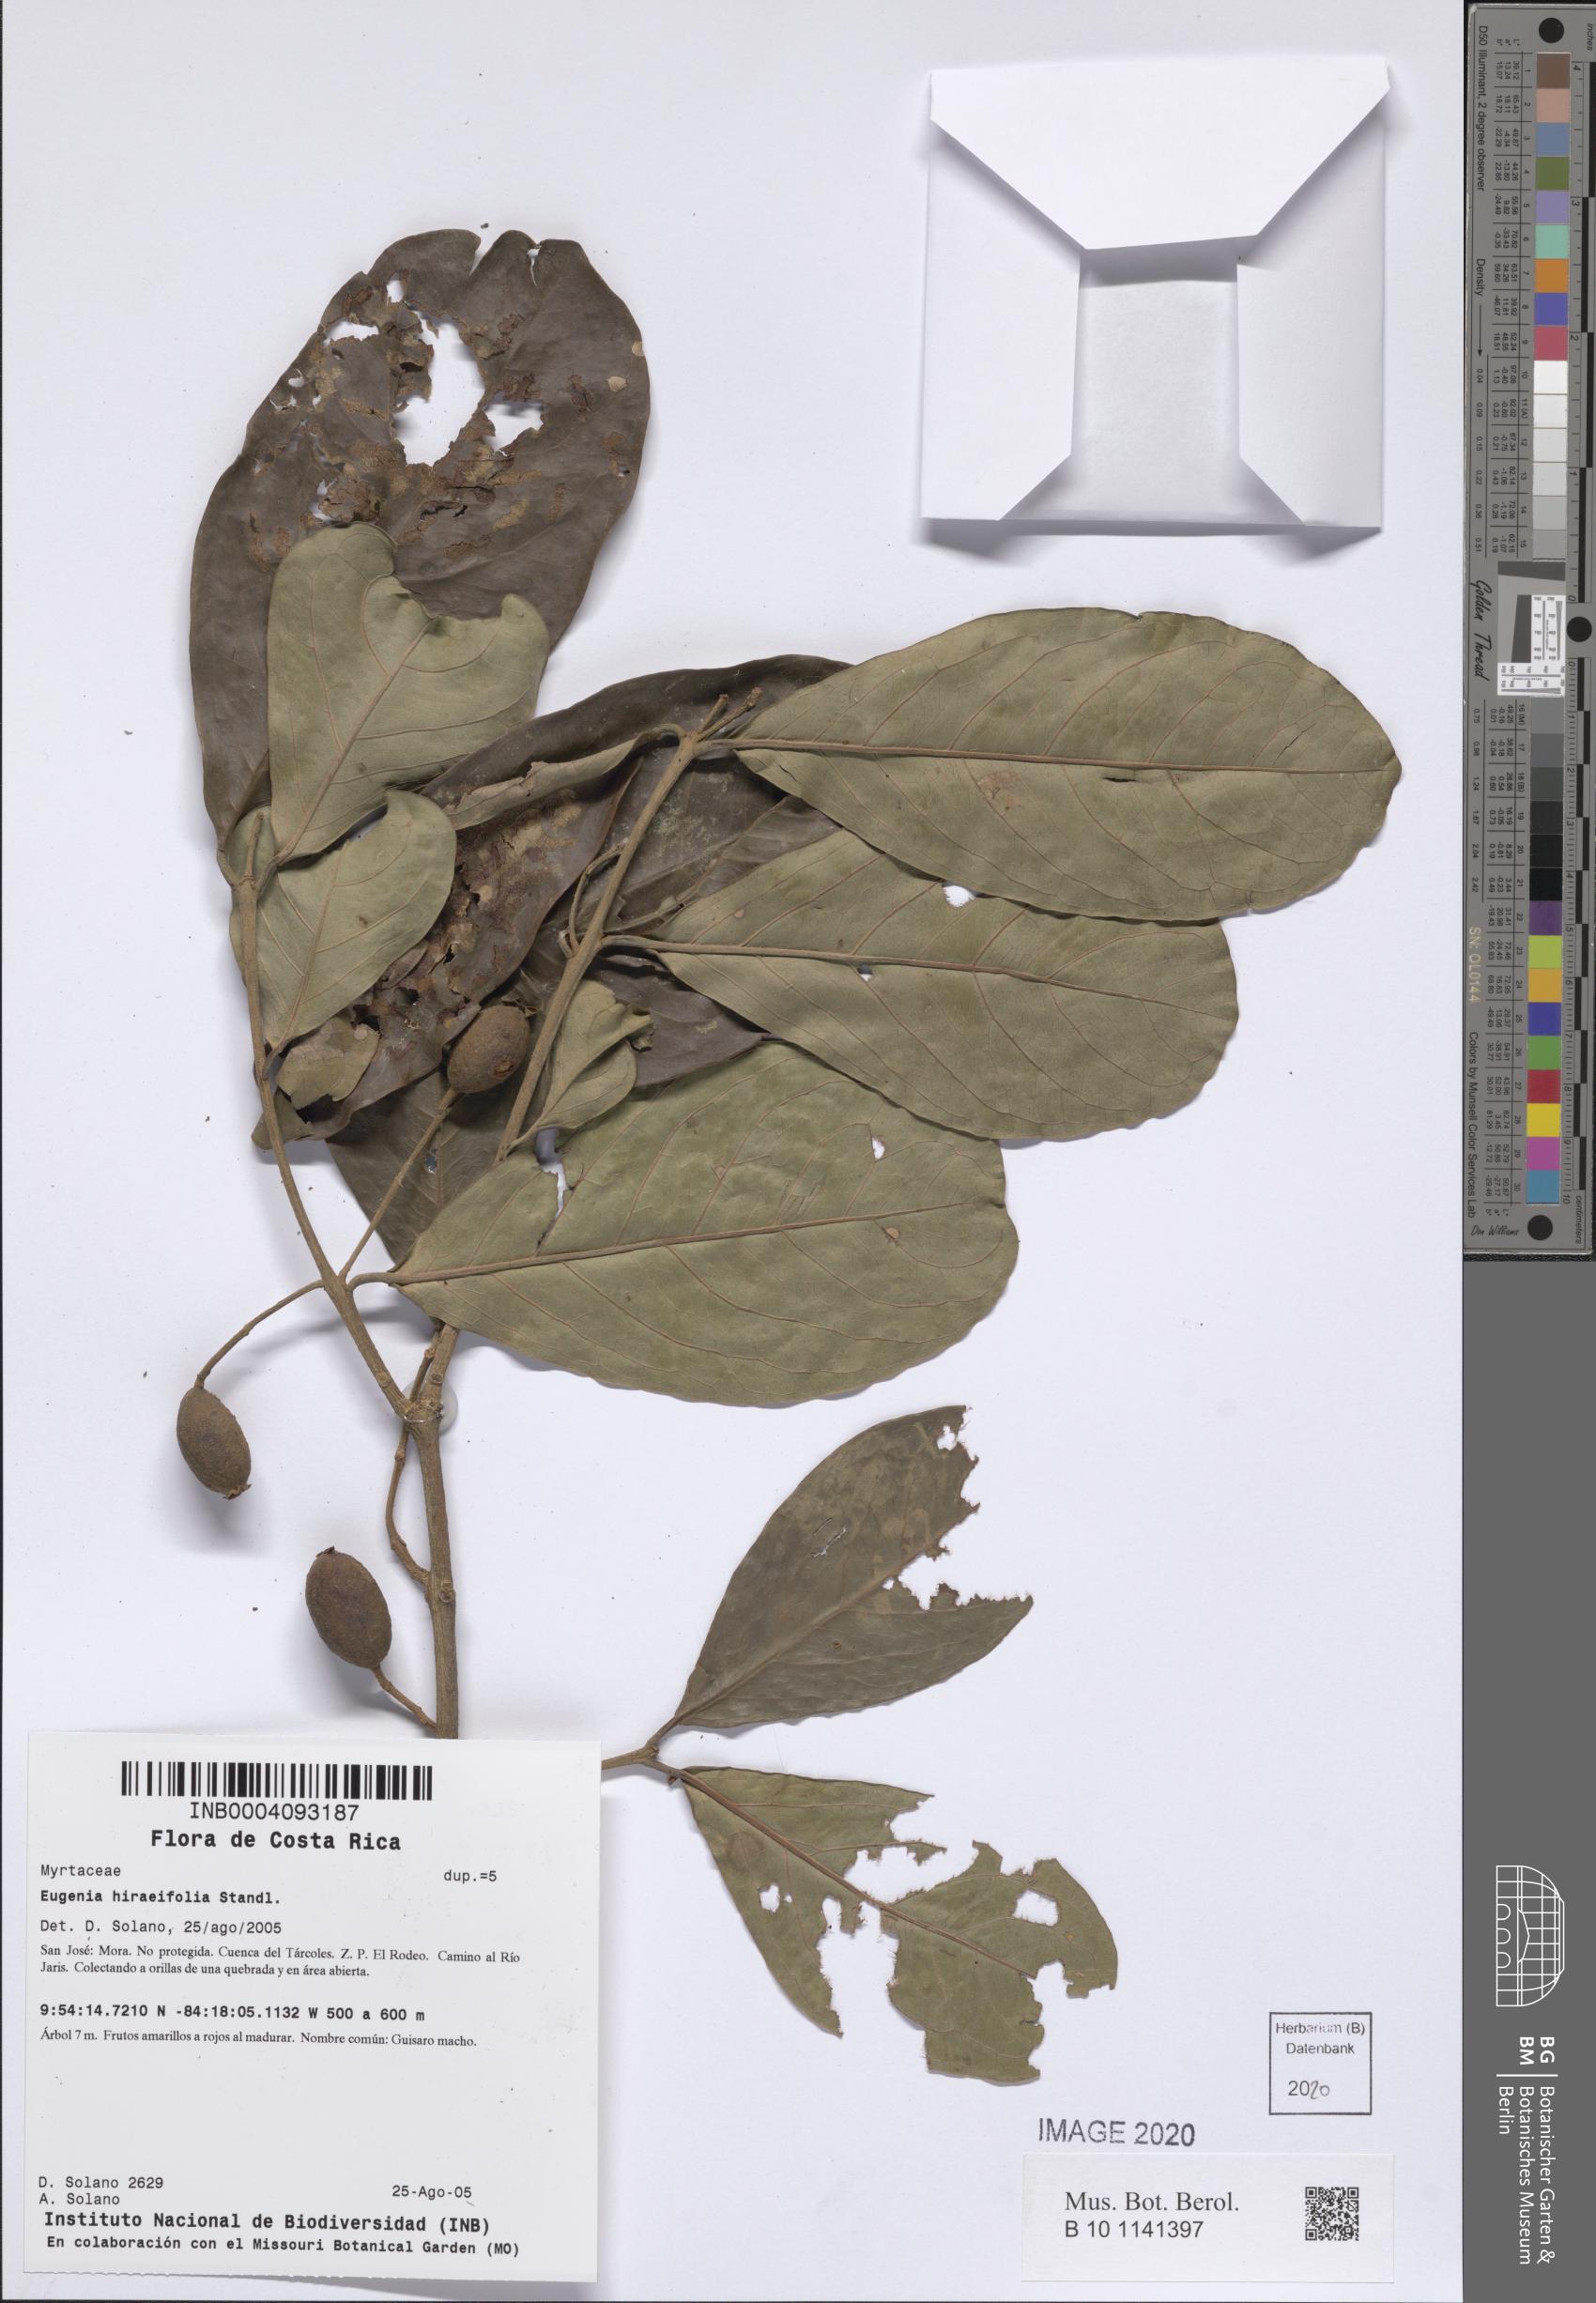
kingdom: Plantae
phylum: Tracheophyta
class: Magnoliopsida
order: Myrtales
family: Myrtaceae
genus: Eugenia
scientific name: Eugenia hiraeifolia
